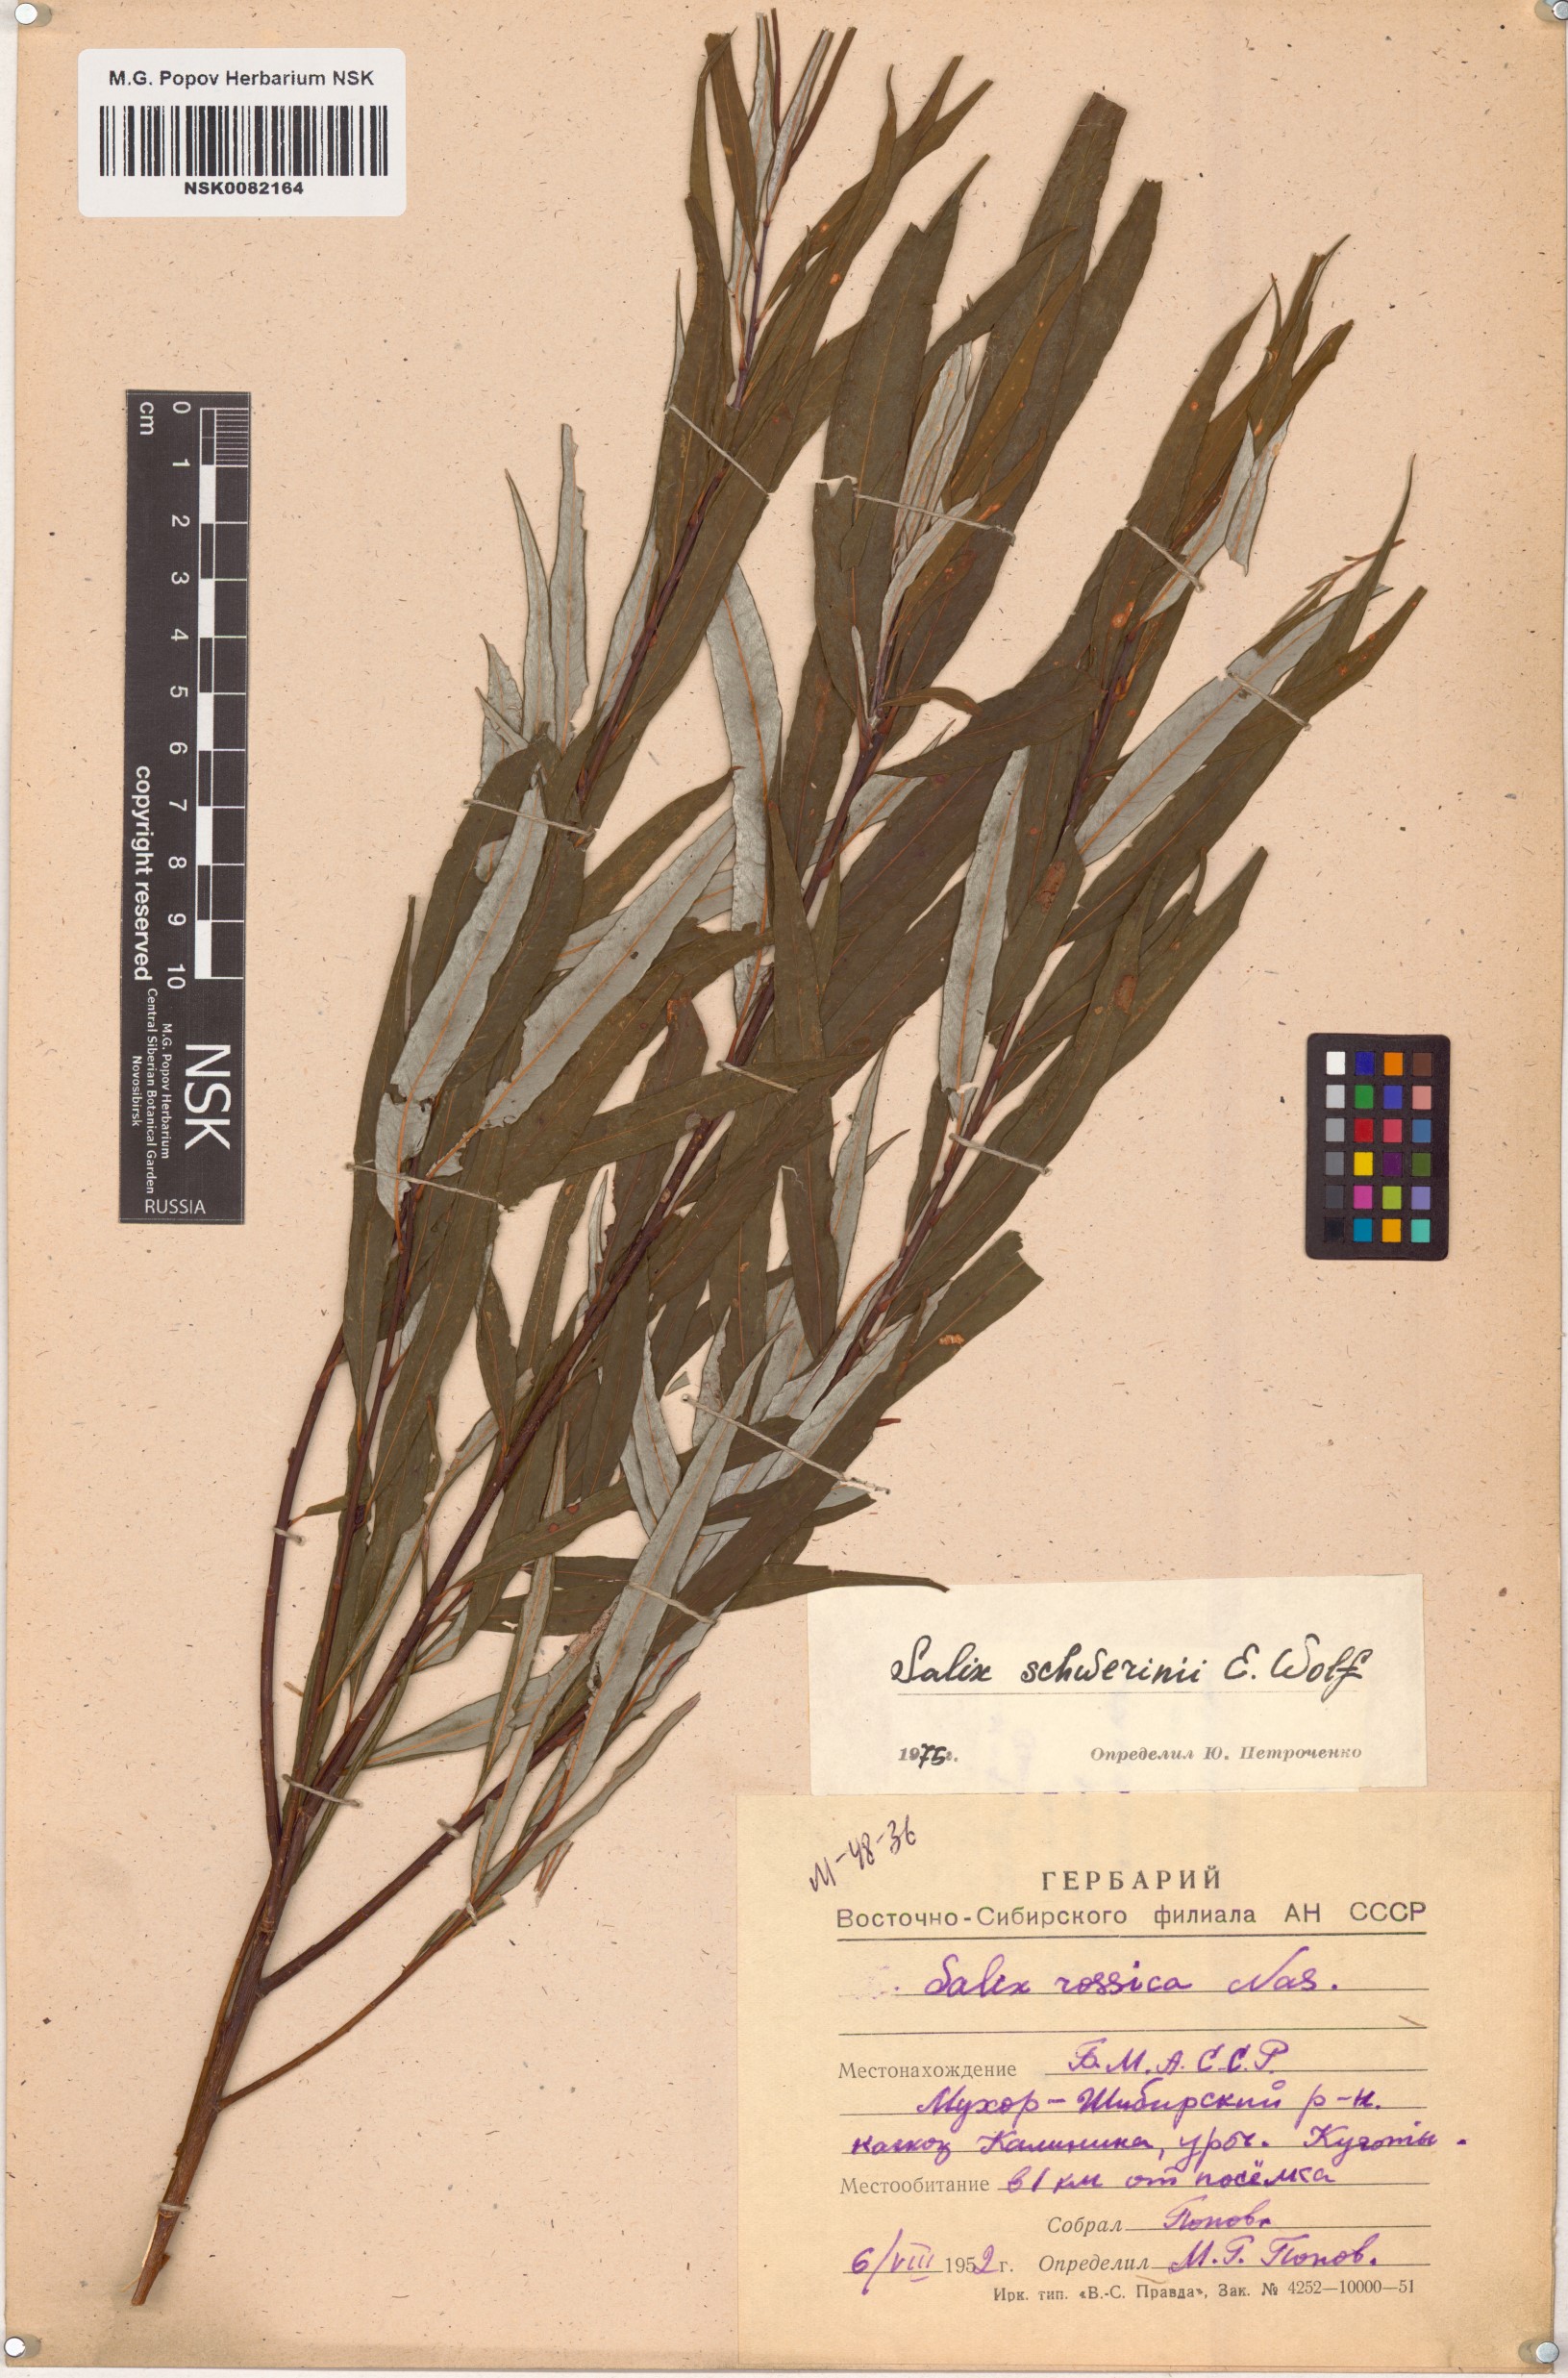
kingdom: Plantae
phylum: Tracheophyta
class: Magnoliopsida
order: Malpighiales
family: Salicaceae
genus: Salix
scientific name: Salix schwerinii
